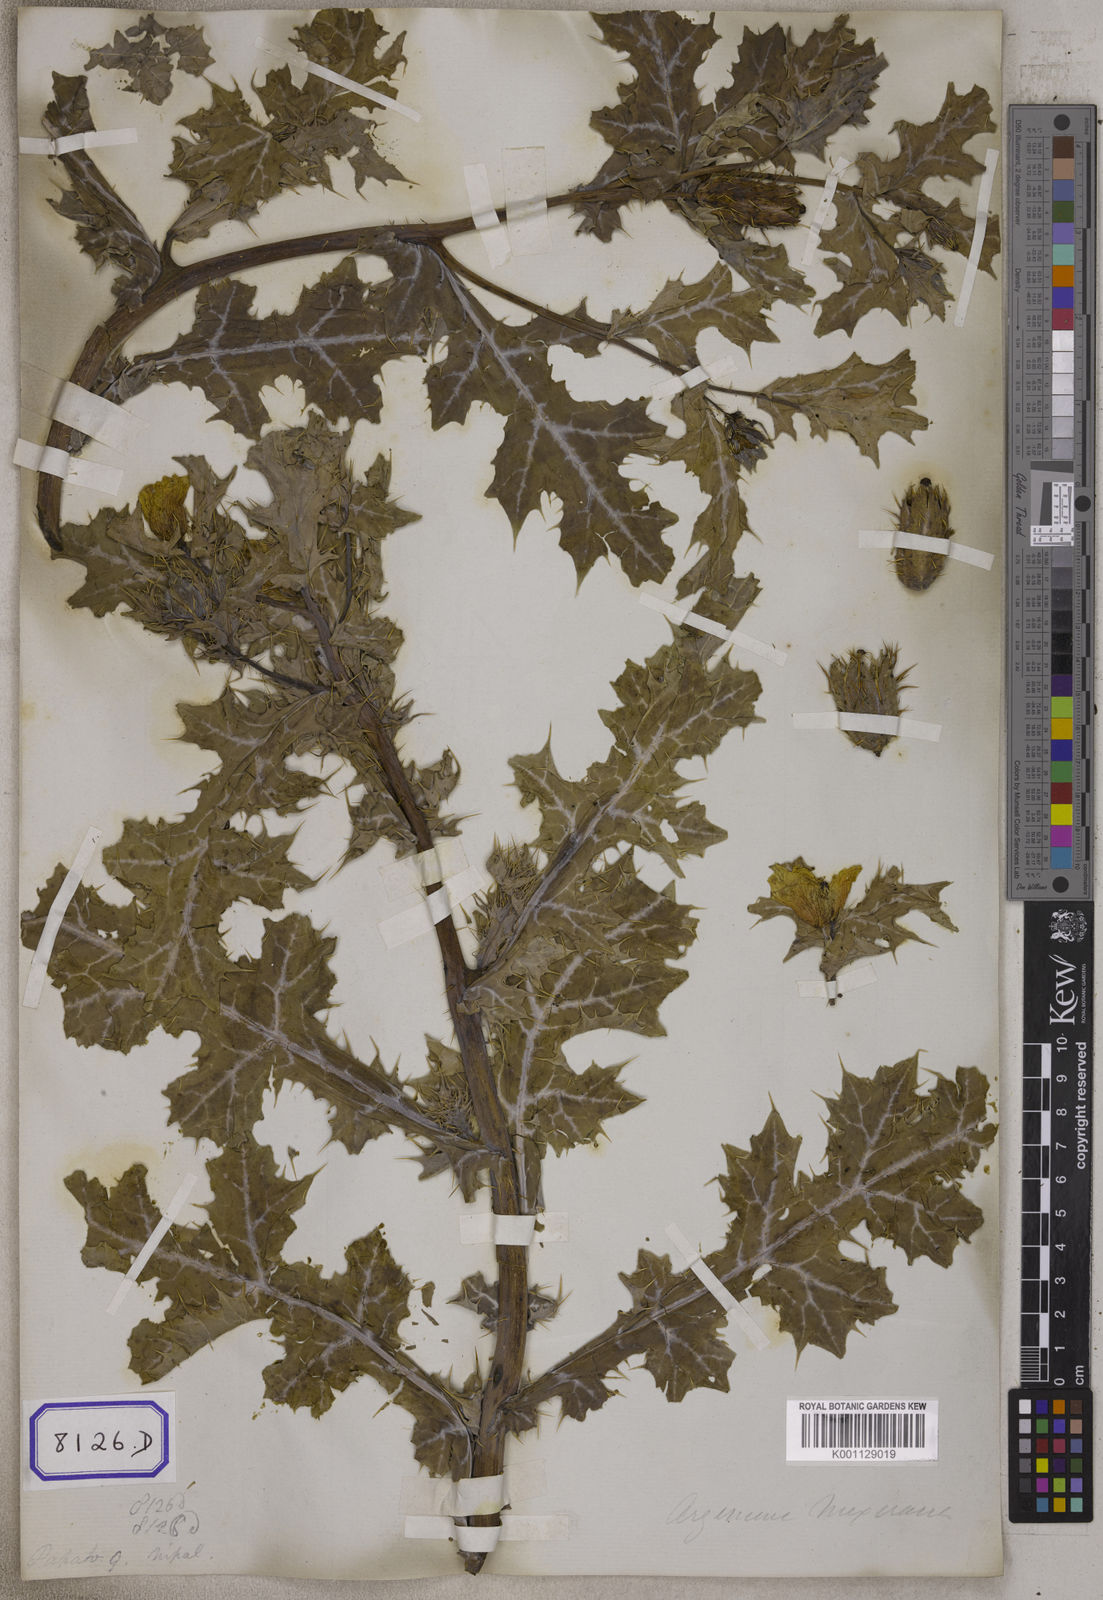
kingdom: Plantae
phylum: Tracheophyta
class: Magnoliopsida
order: Ranunculales
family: Papaveraceae
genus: Argemone
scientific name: Argemone mexicana
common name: Mexican poppy
